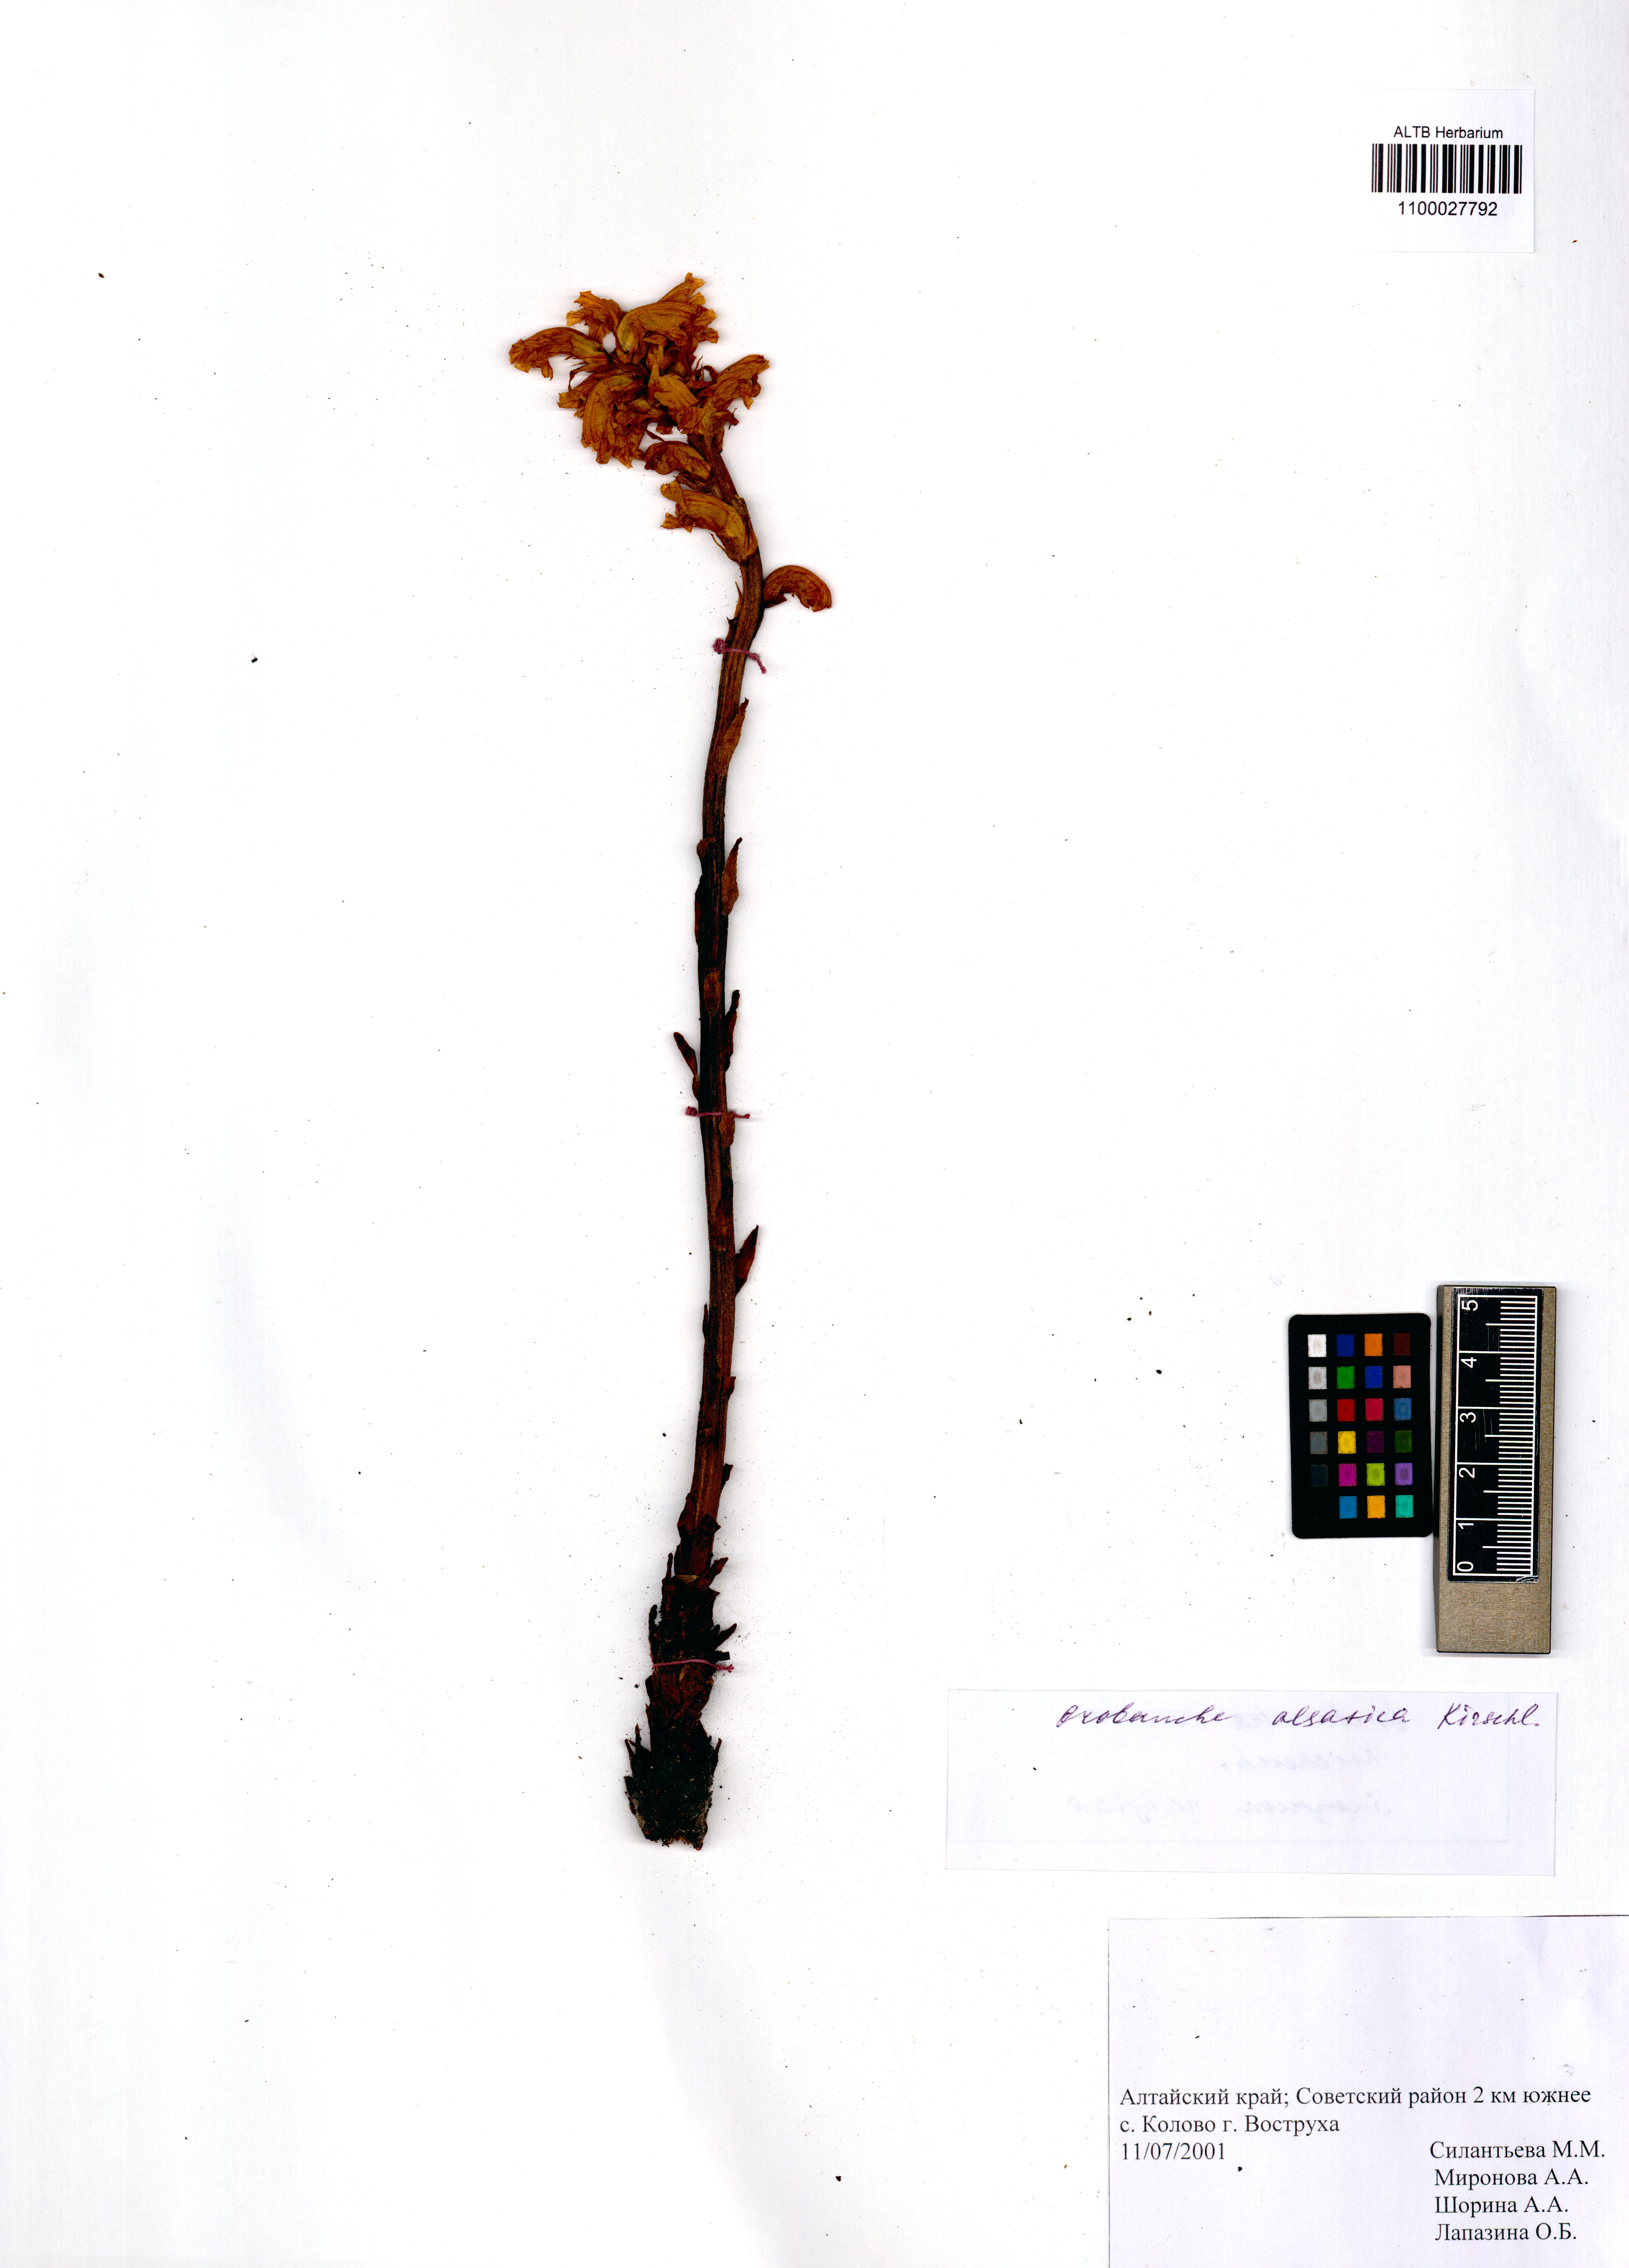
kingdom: Plantae
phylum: Tracheophyta
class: Magnoliopsida
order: Lamiales
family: Orobanchaceae
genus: Orobanche
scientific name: Orobanche alsatica
